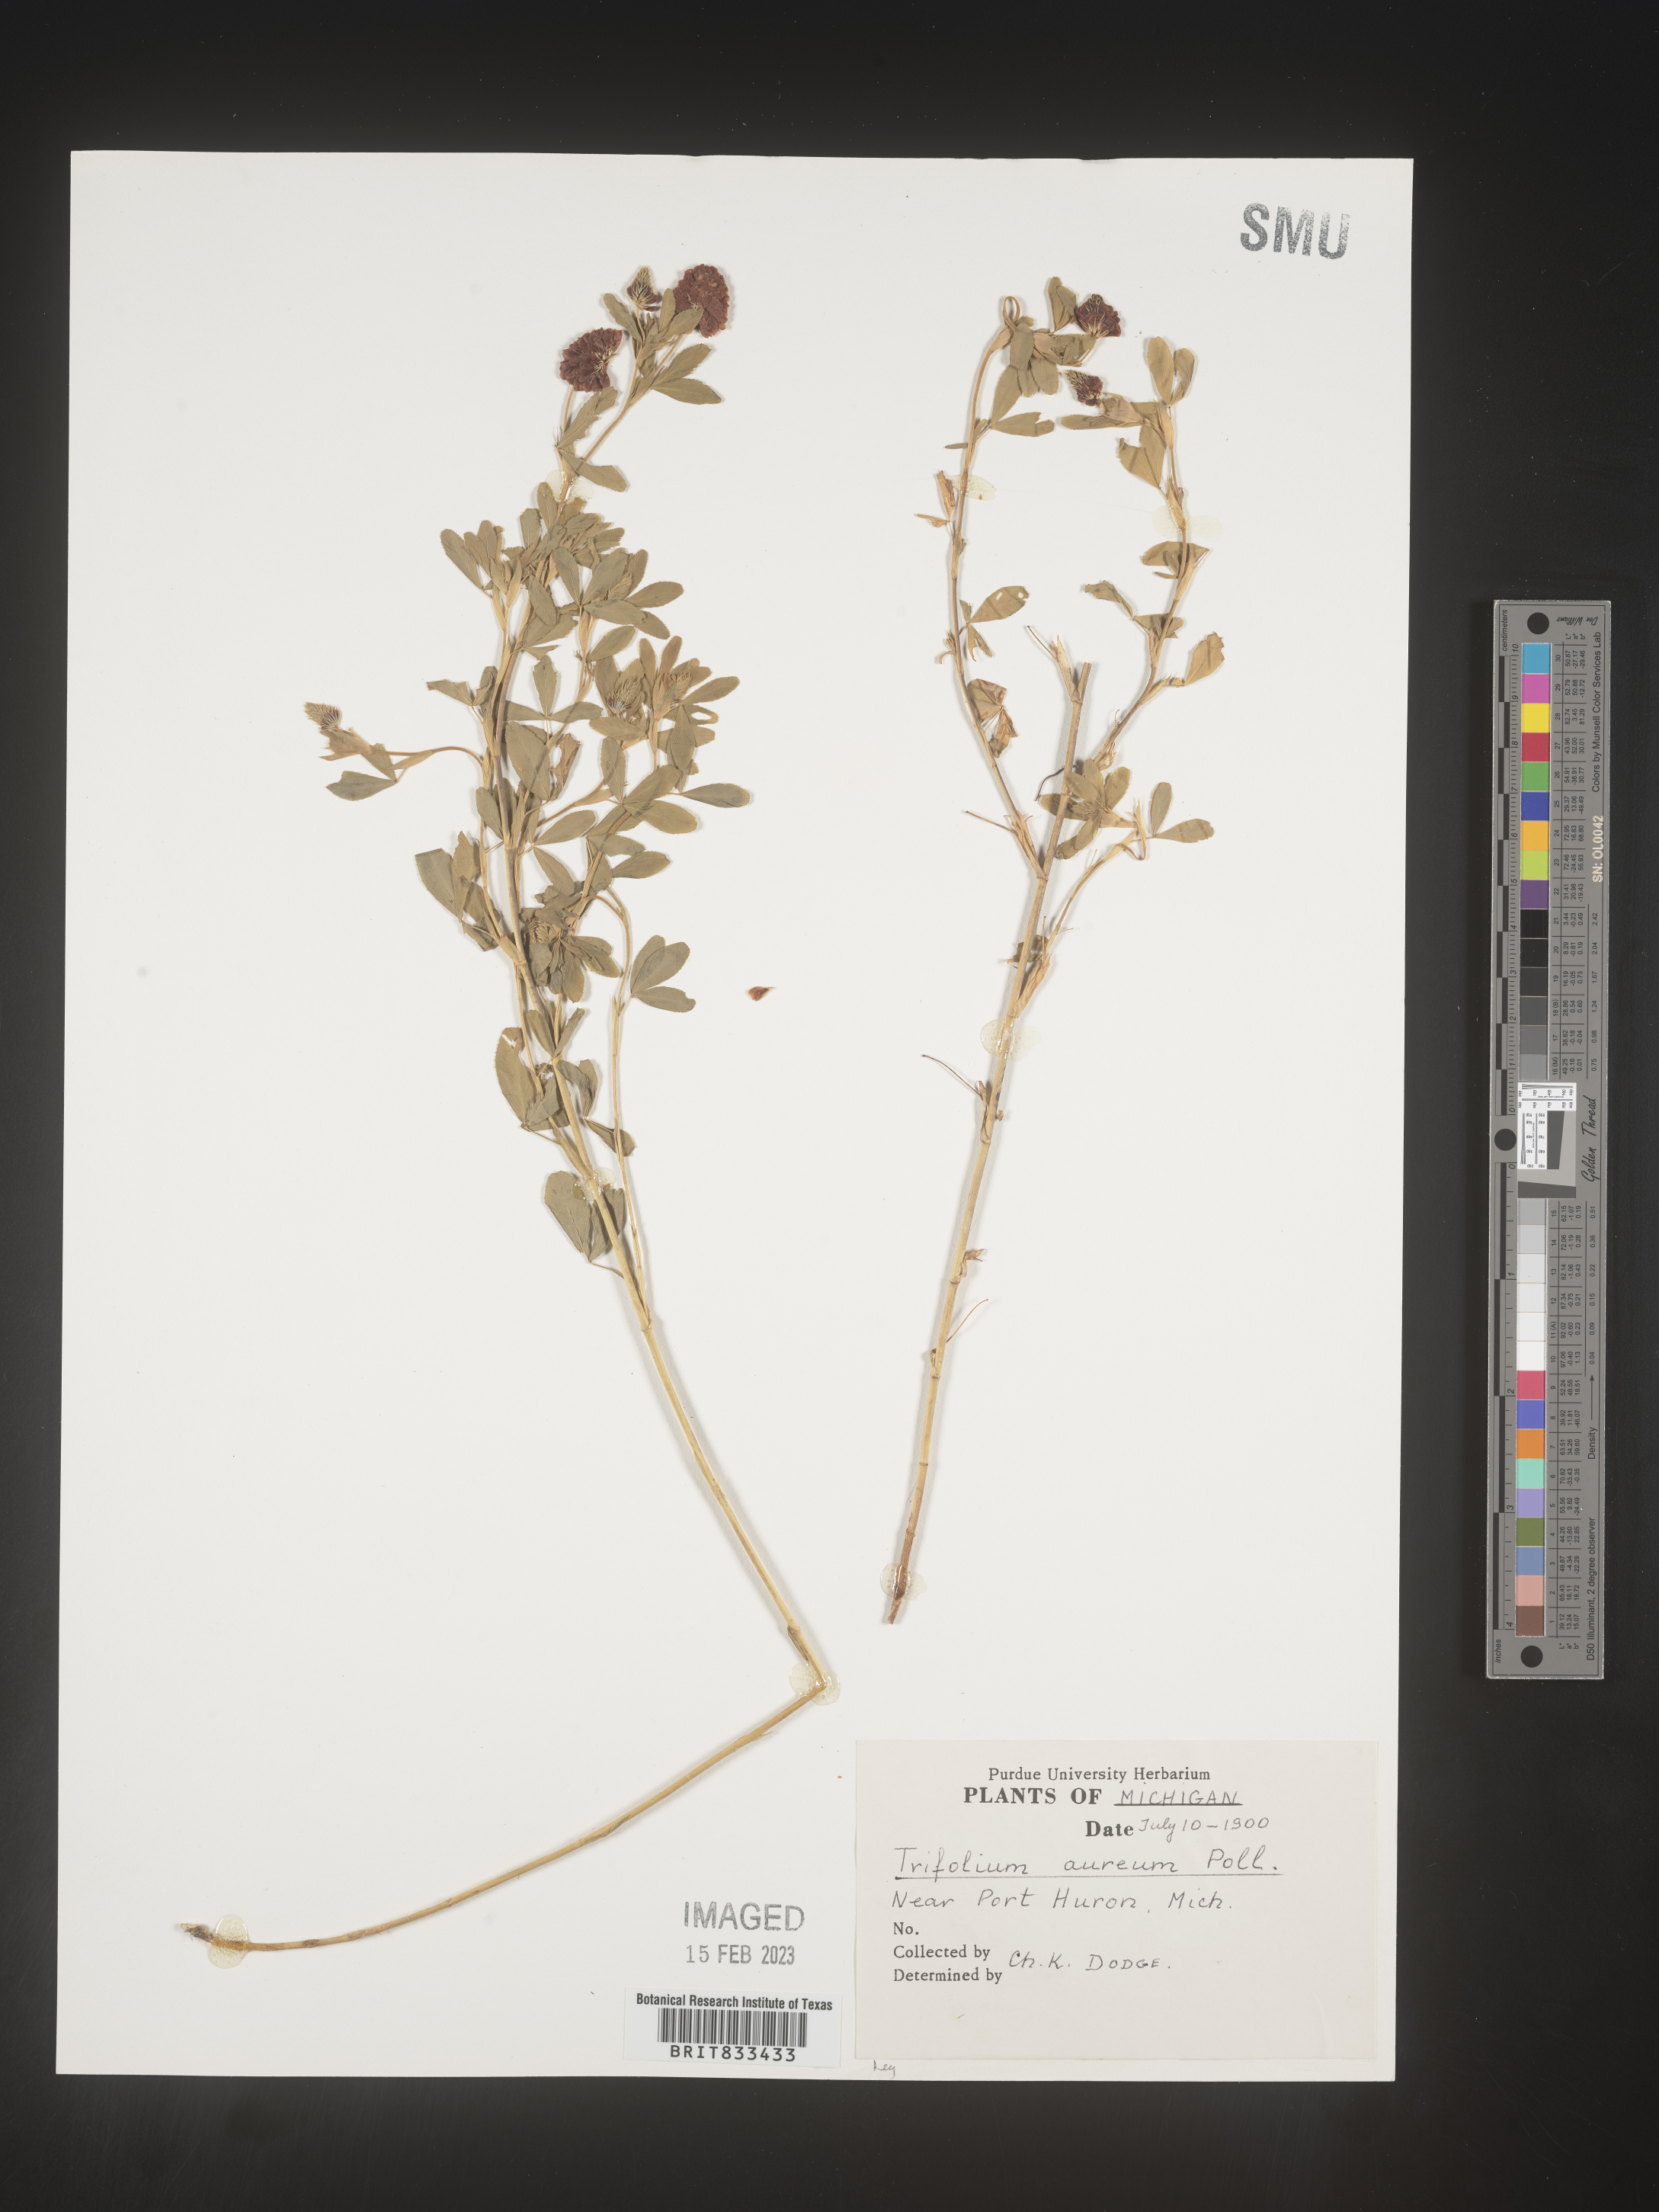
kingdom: Plantae
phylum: Tracheophyta
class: Magnoliopsida
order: Fabales
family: Fabaceae
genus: Trifolium
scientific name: Trifolium
